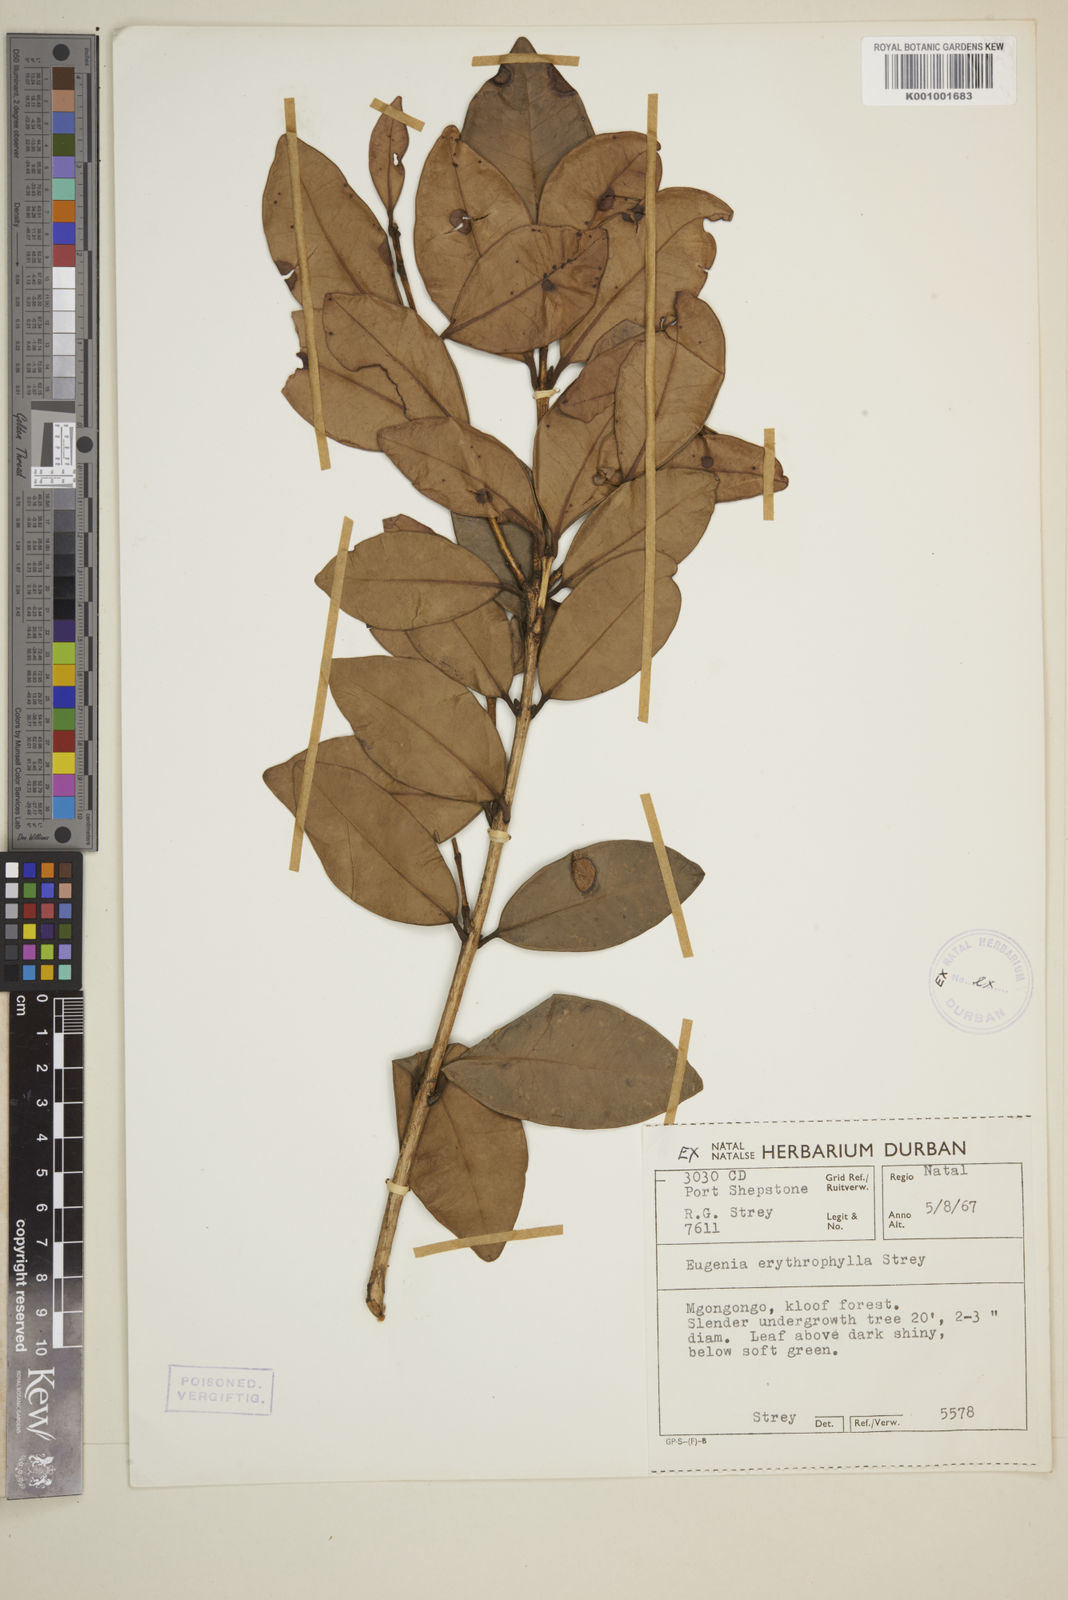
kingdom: Plantae
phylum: Tracheophyta
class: Magnoliopsida
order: Myrtales
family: Myrtaceae
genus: Eugenia
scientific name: Eugenia erythrophylla
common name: Large-leaved myrtle
